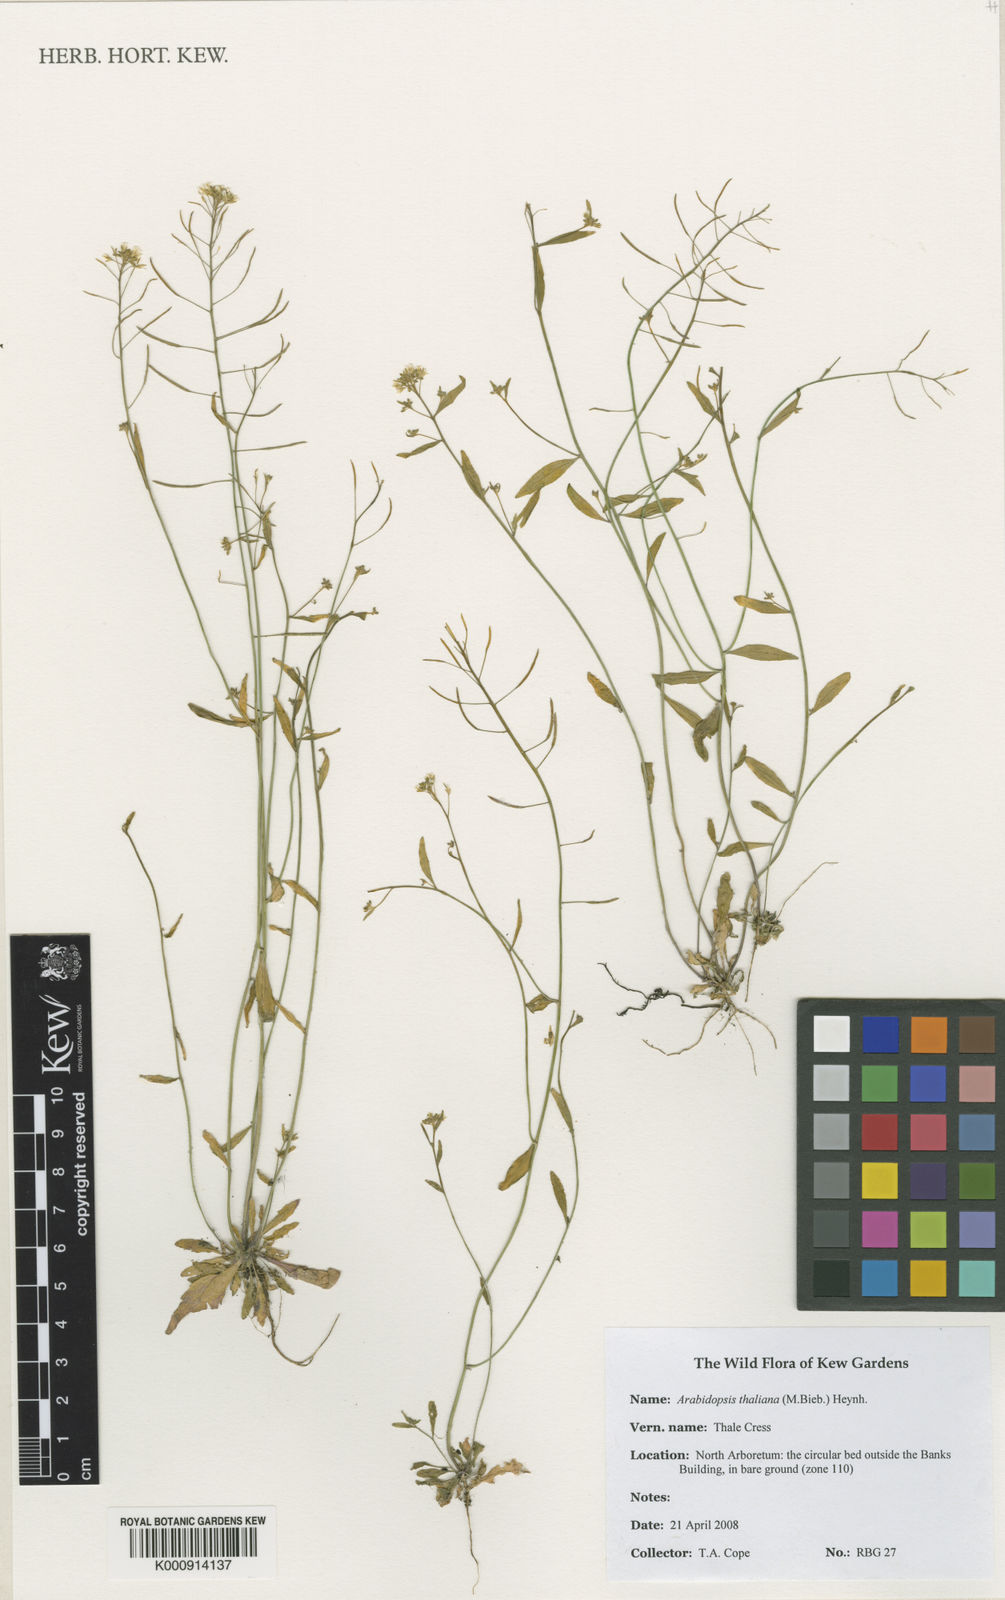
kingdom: Plantae
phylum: Tracheophyta
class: Magnoliopsida
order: Brassicales
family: Brassicaceae
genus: Arabidopsis
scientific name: Arabidopsis thaliana
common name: Thale cress
